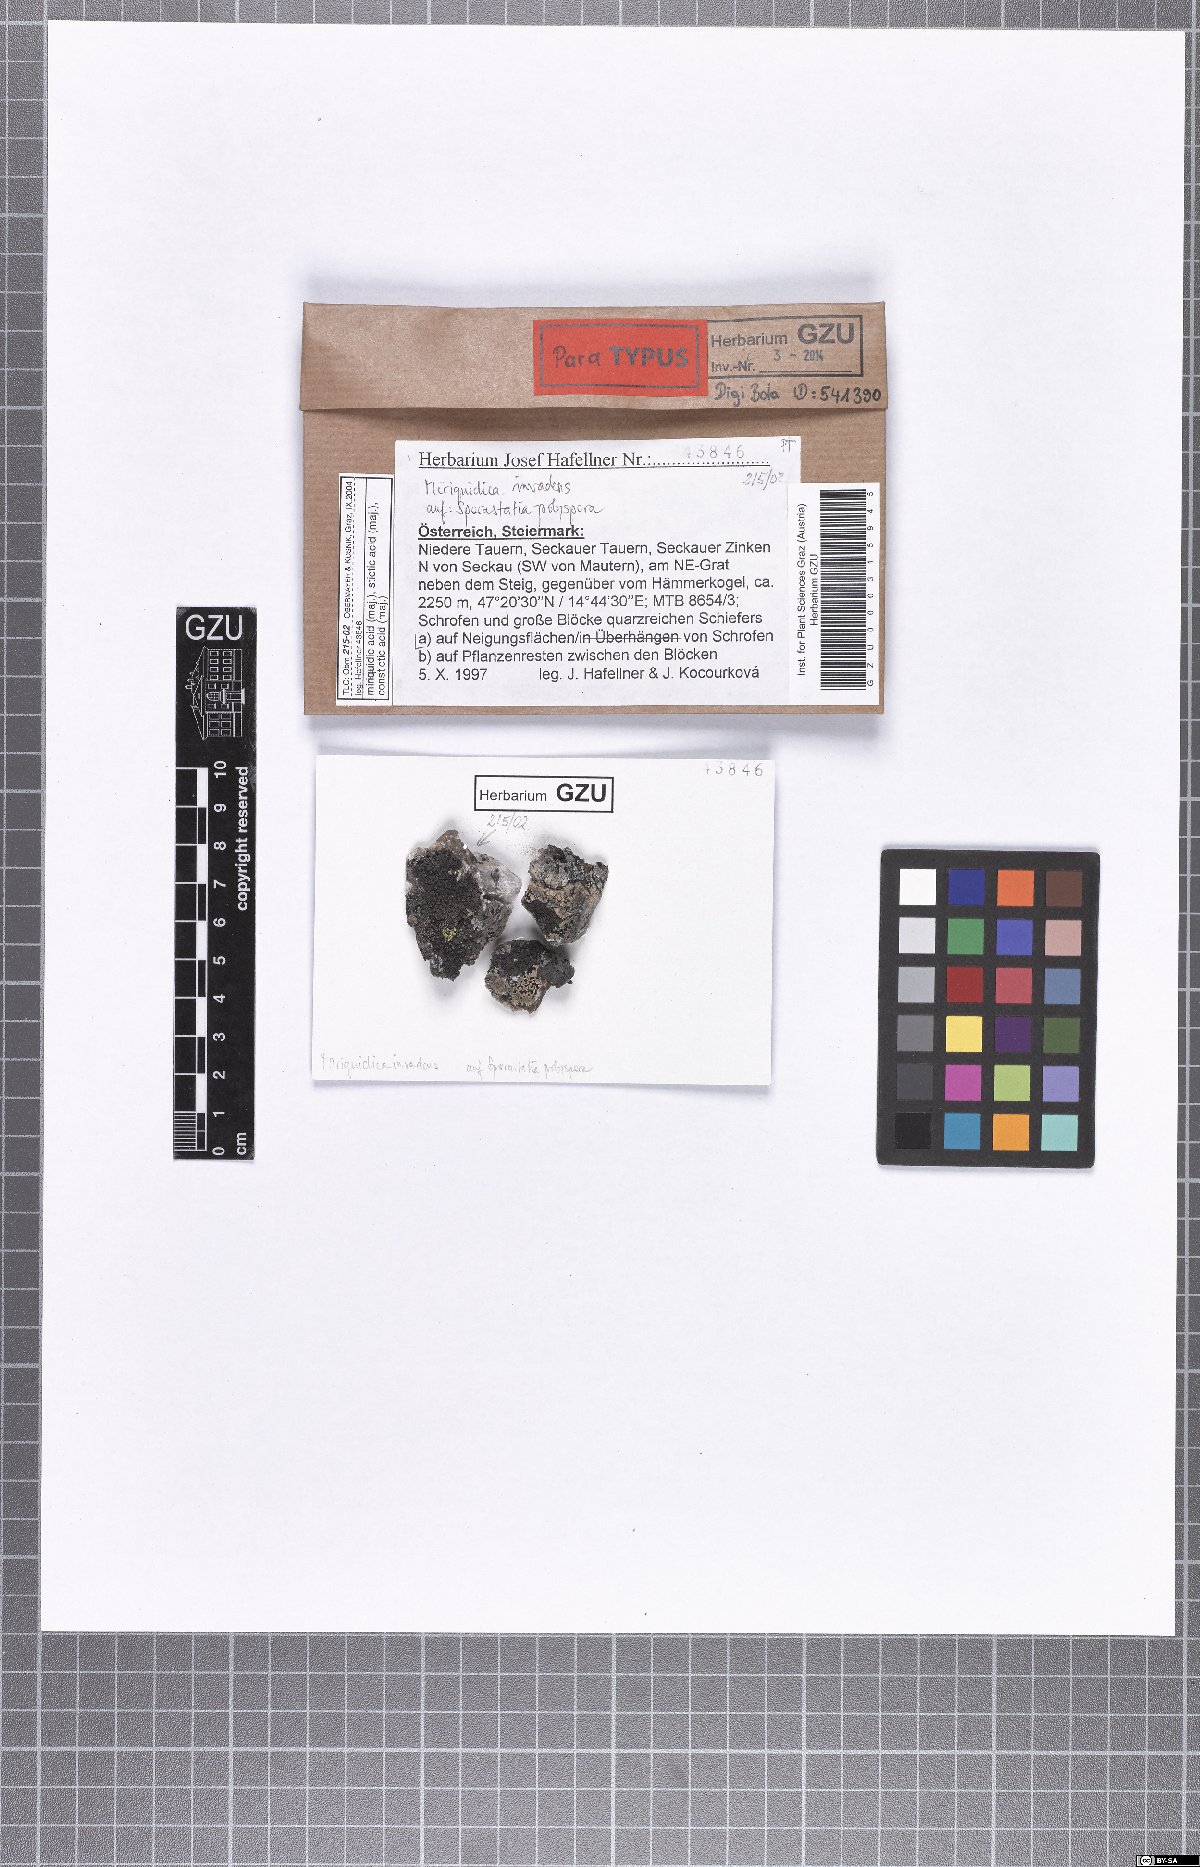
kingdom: Fungi
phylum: Ascomycota
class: Lecanoromycetes
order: Lecanorales
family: Lecanoraceae
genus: Miriquidica
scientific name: Miriquidica invadens
